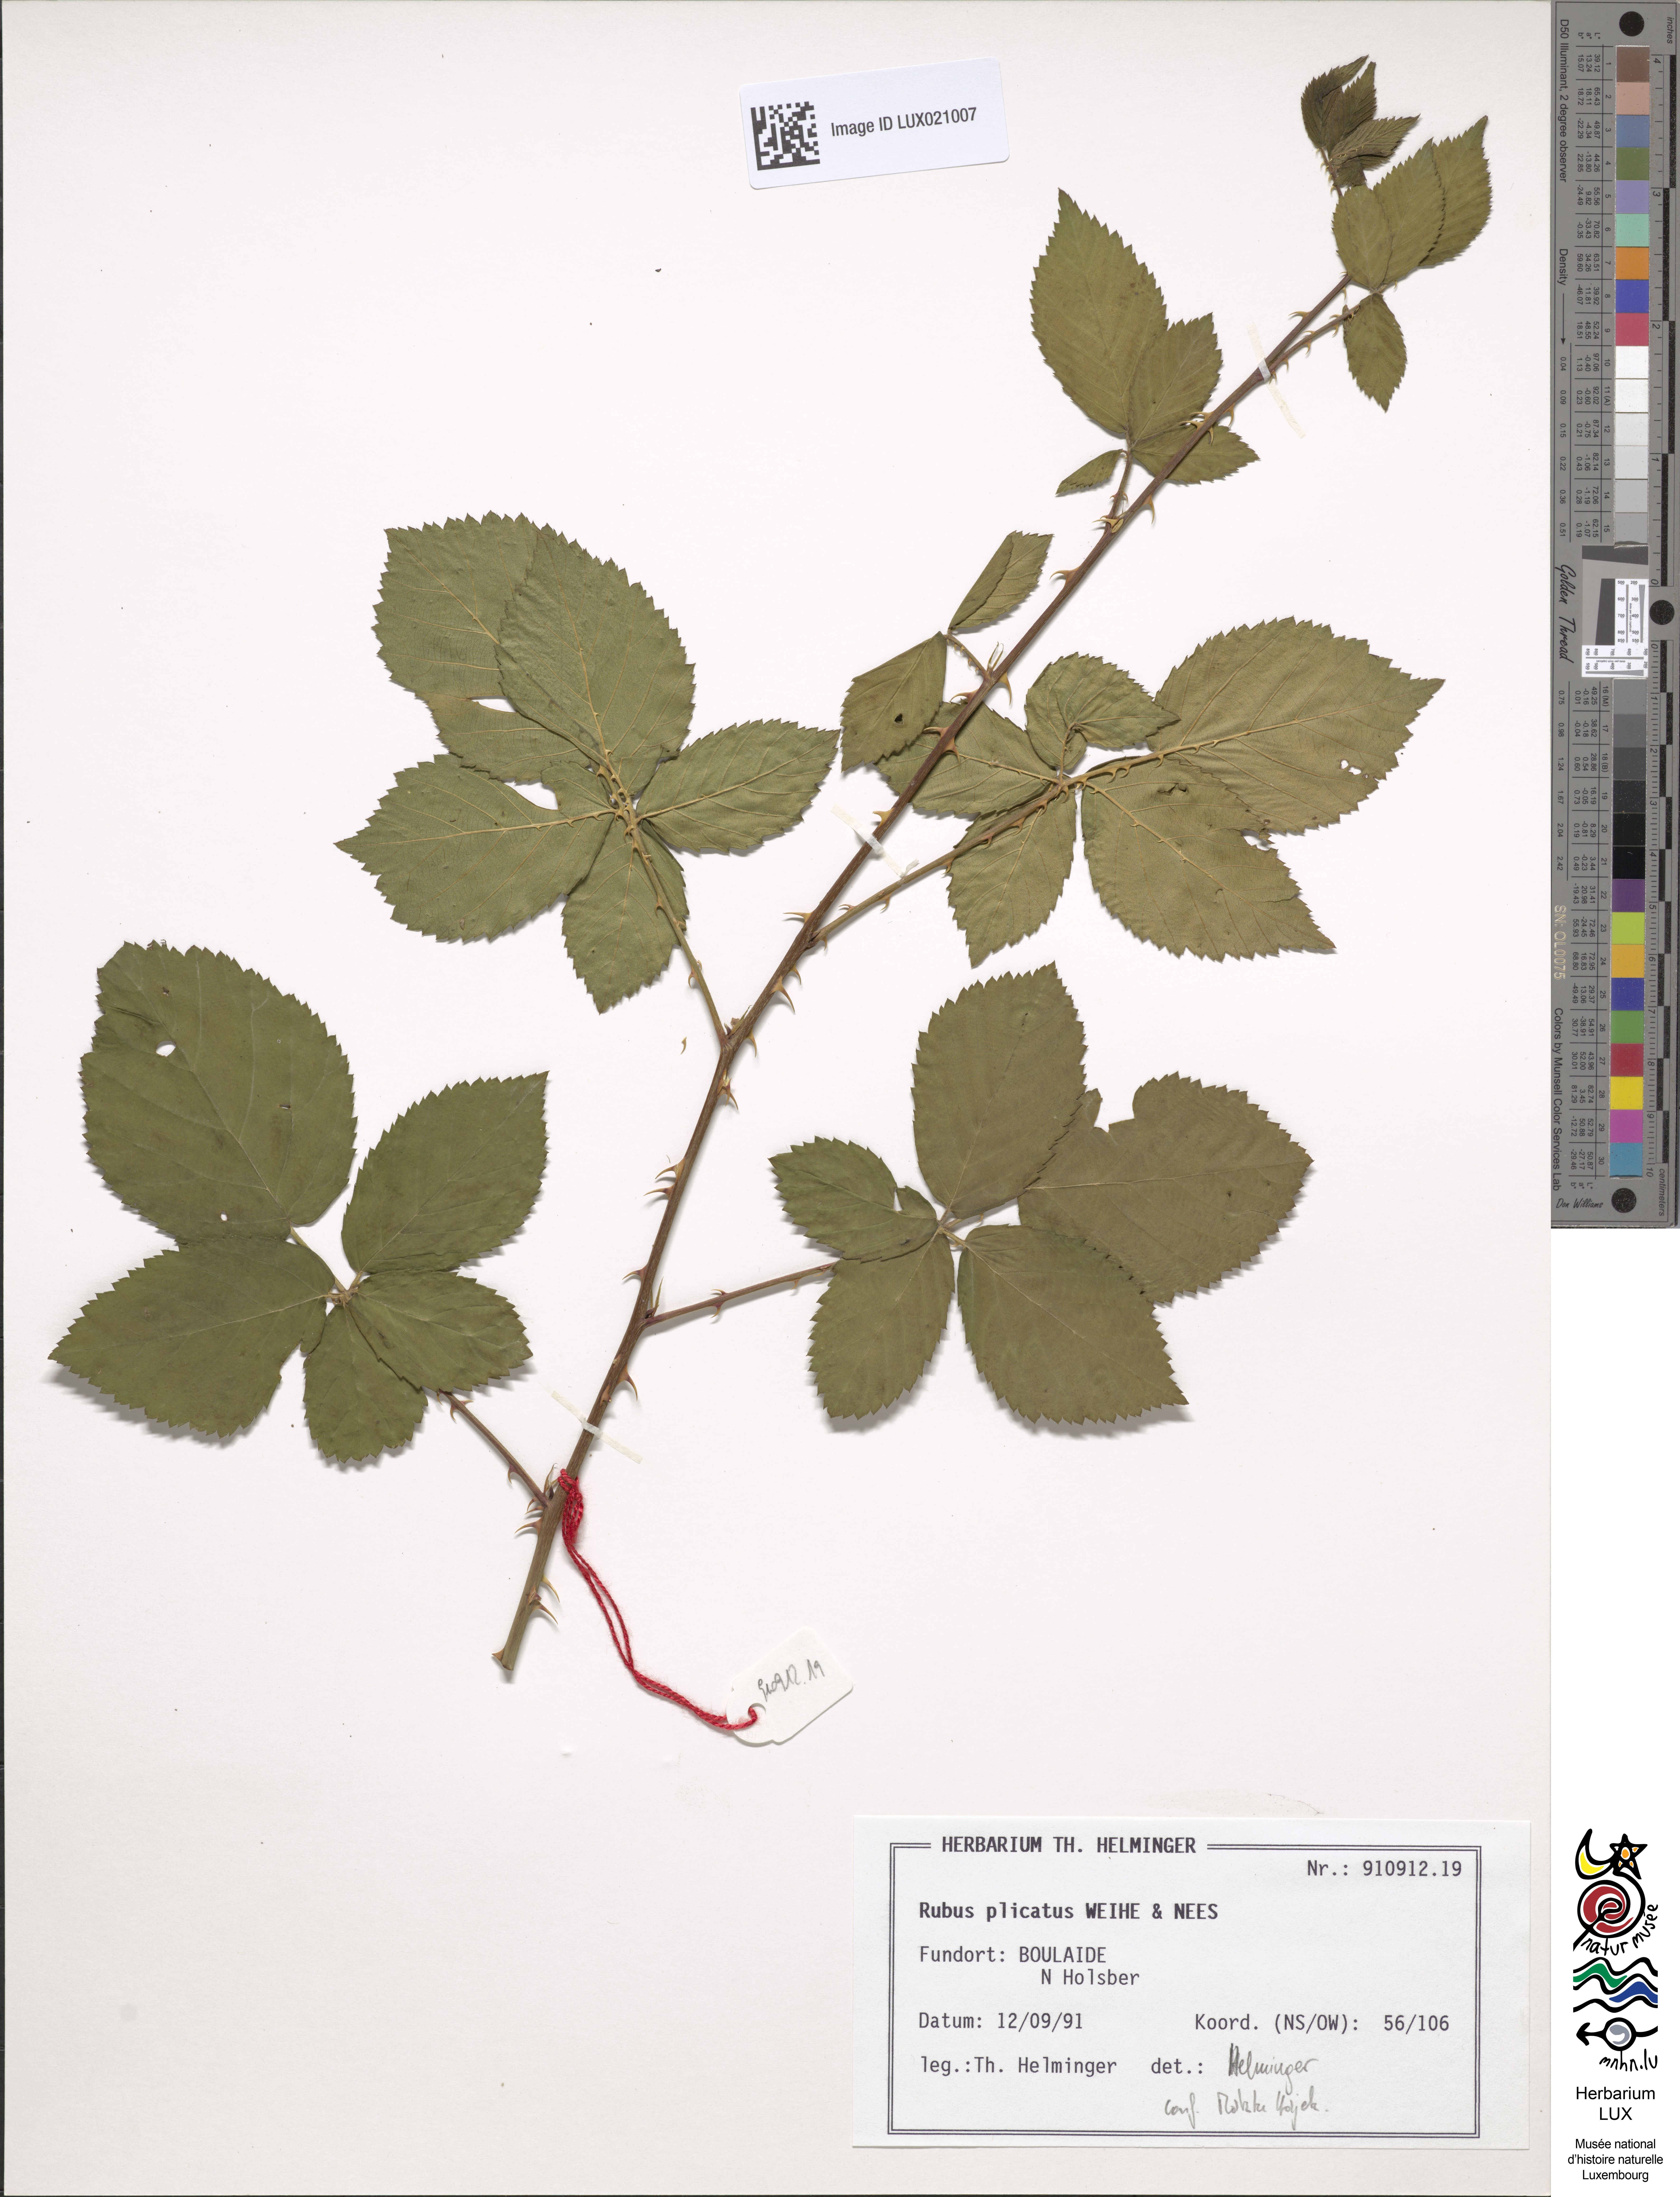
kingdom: Plantae
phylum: Tracheophyta
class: Magnoliopsida
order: Rosales
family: Rosaceae
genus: Rubus
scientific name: Rubus plicatus
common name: Plaited-leaved bramble
